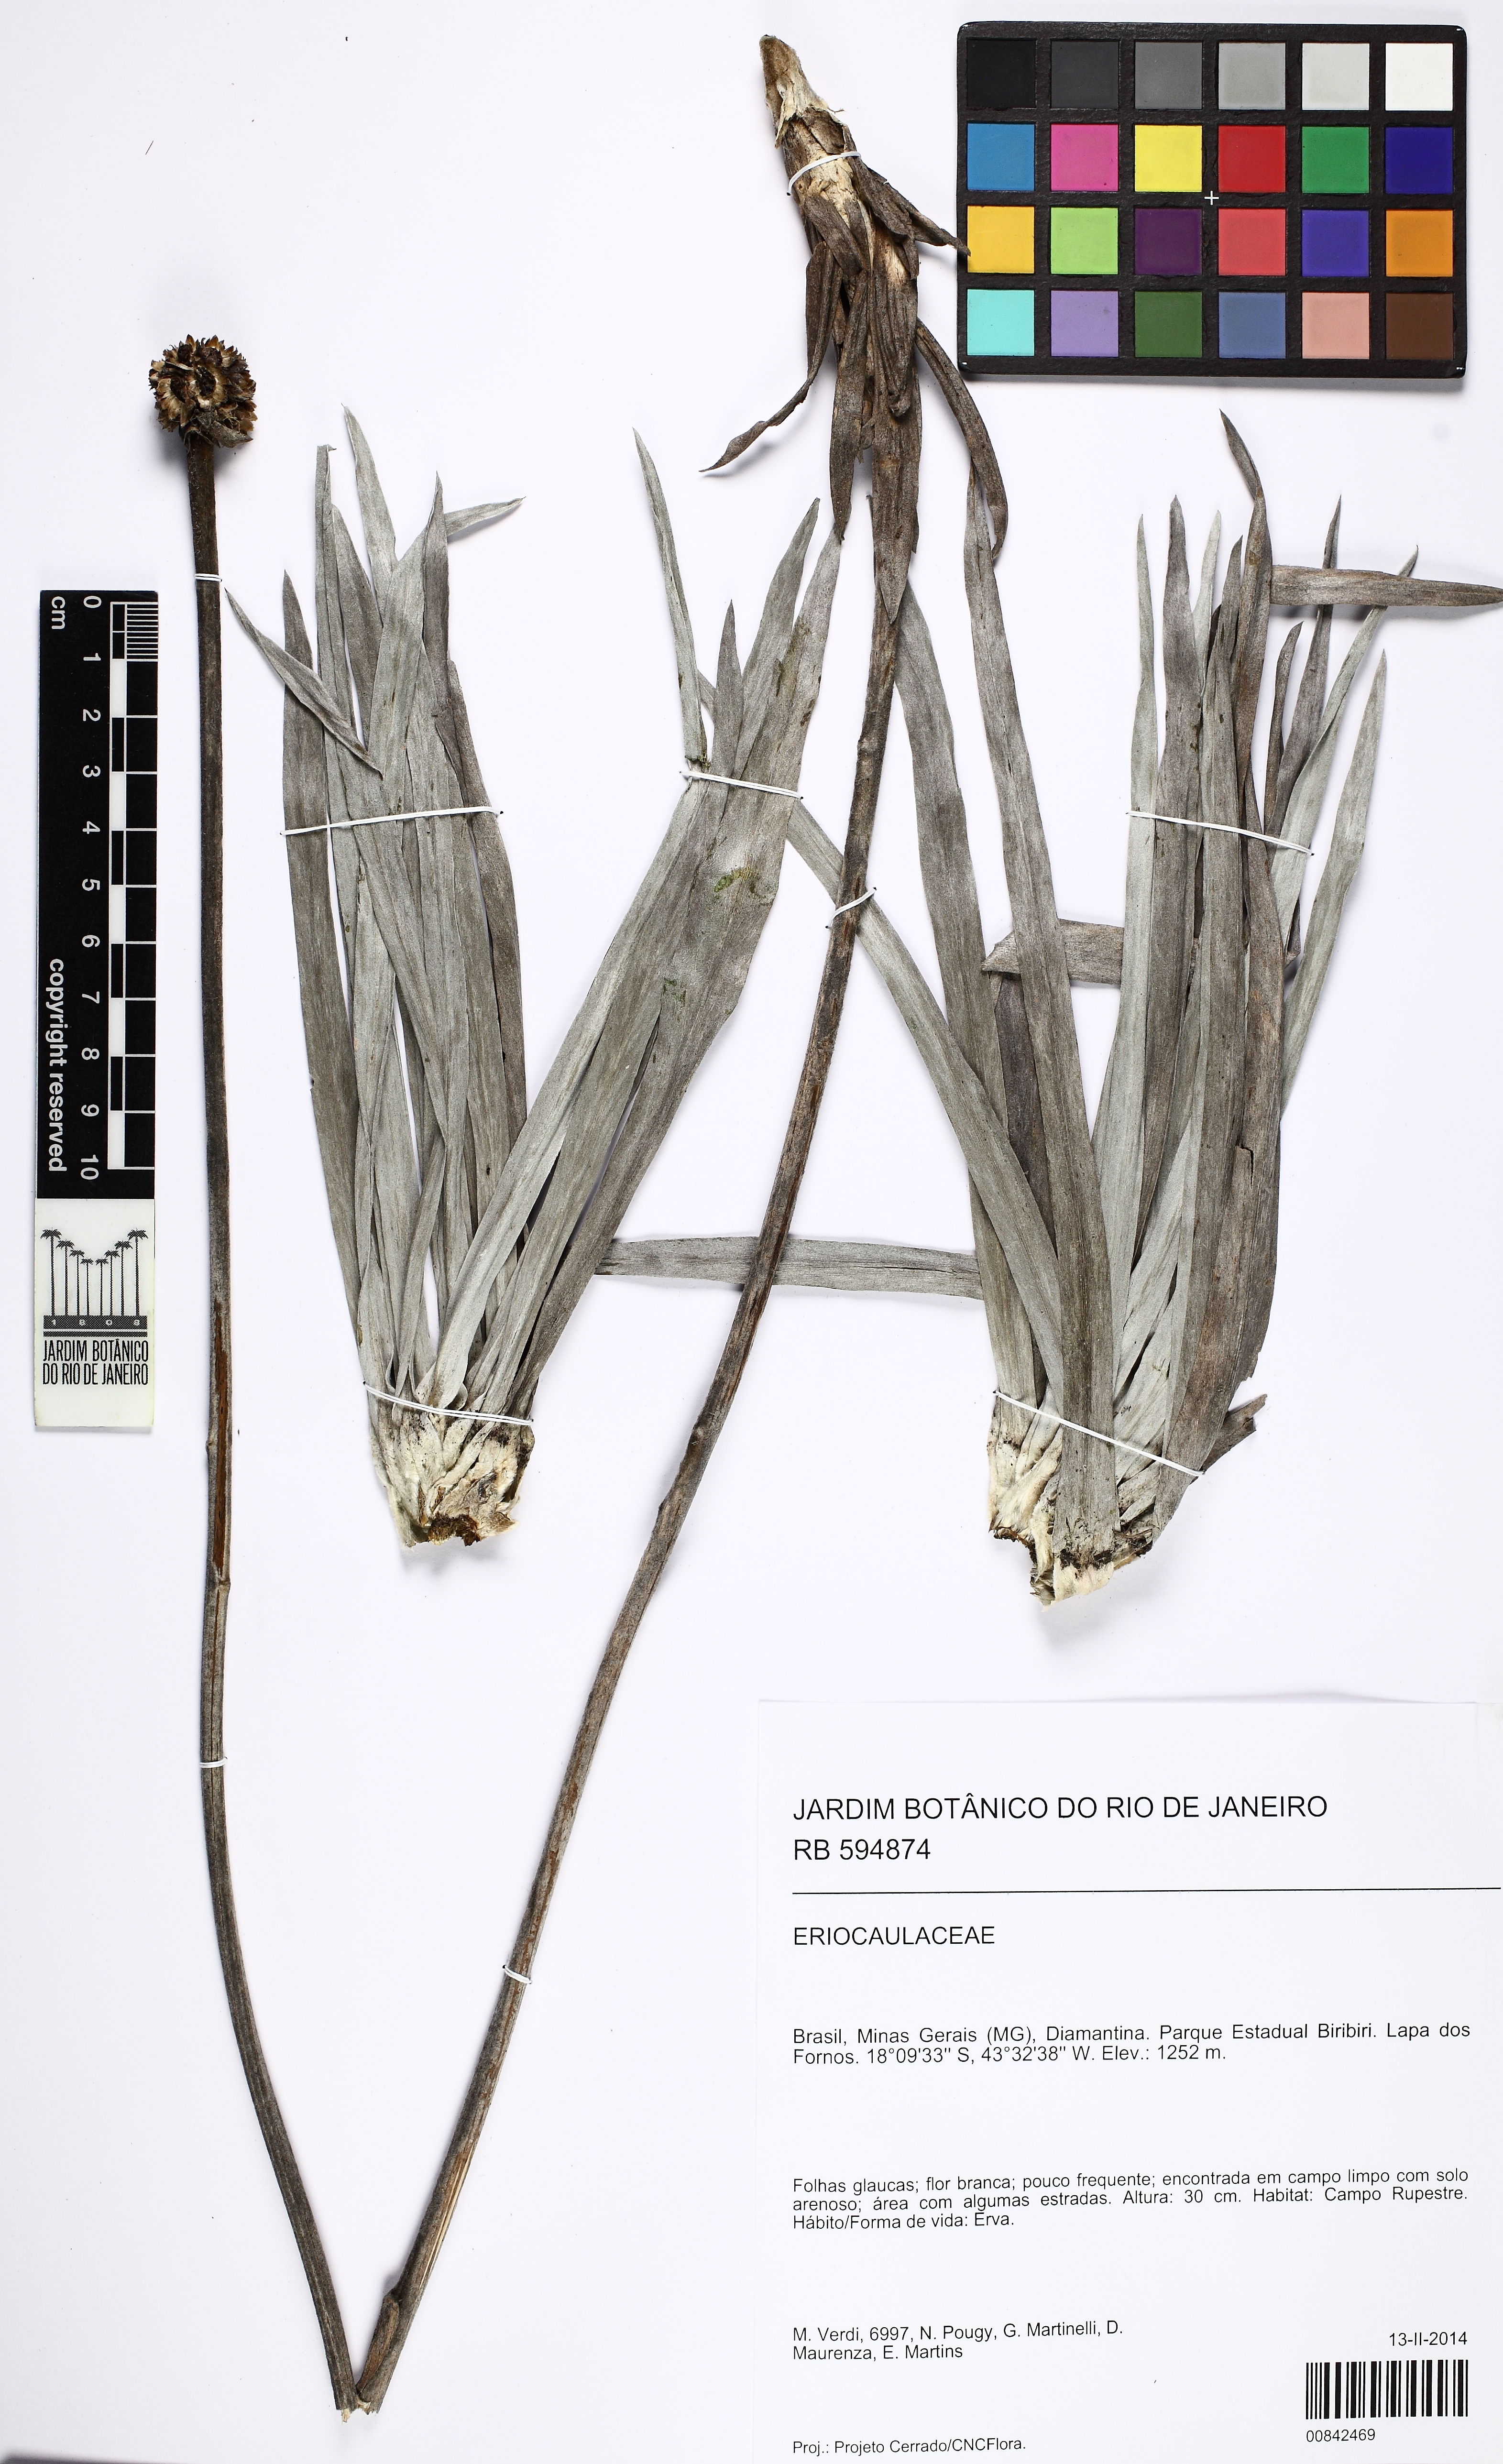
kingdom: Plantae
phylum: Tracheophyta
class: Magnoliopsida
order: Asterales
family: Asteraceae
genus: Minasia
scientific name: Minasia
